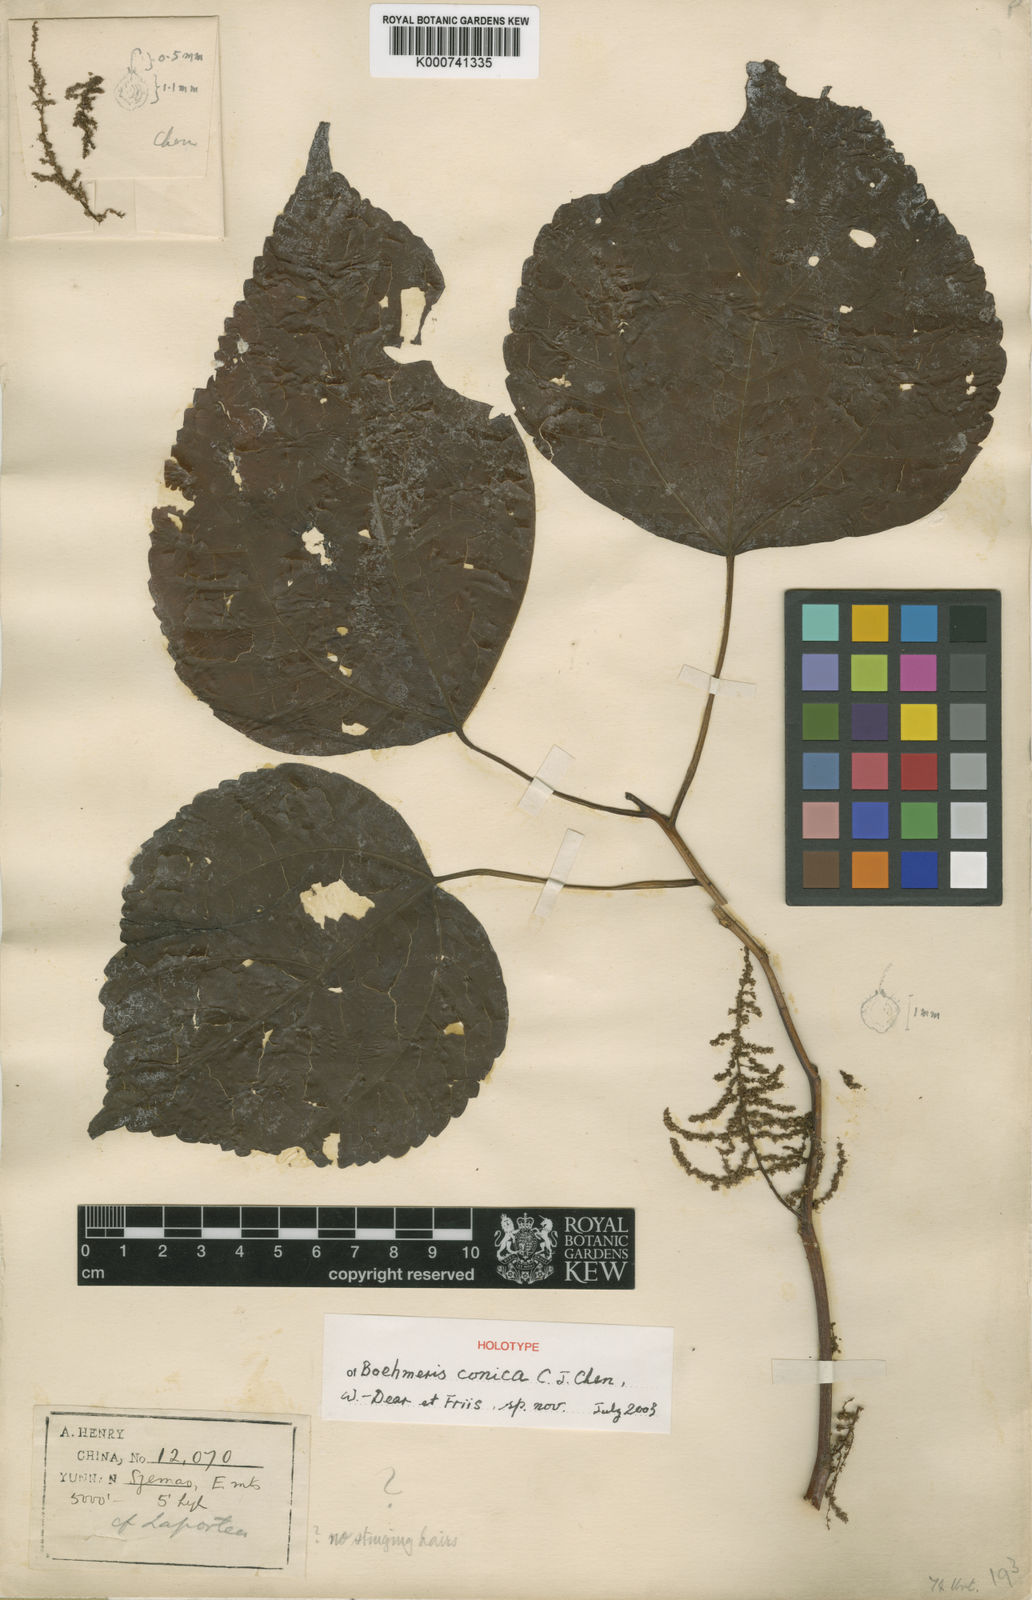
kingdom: Plantae
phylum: Tracheophyta
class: Magnoliopsida
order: Rosales
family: Urticaceae
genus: Boehmeria
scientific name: Boehmeria conica
